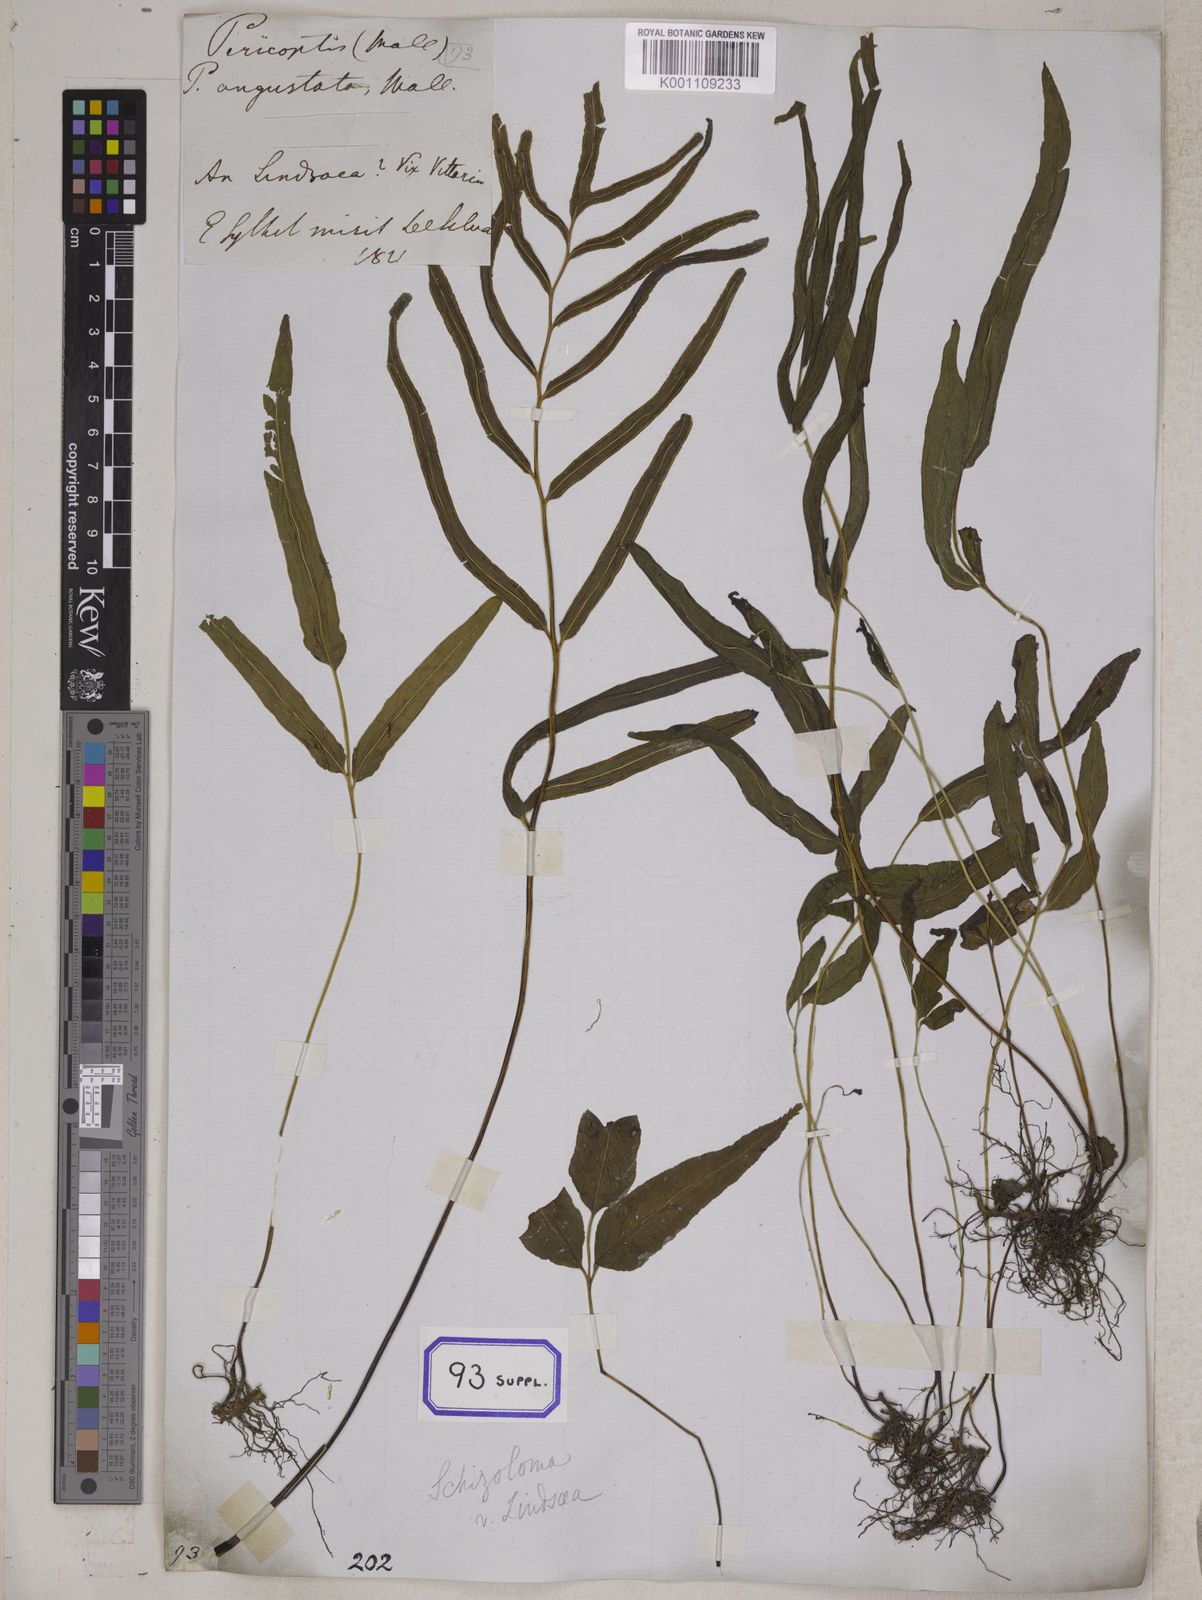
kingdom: Plantae
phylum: Tracheophyta
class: Polypodiopsida
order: Polypodiales
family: Lindsaeaceae
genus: Lindsaea
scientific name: Lindsaea ensifolia
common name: Graceful necklace fern
